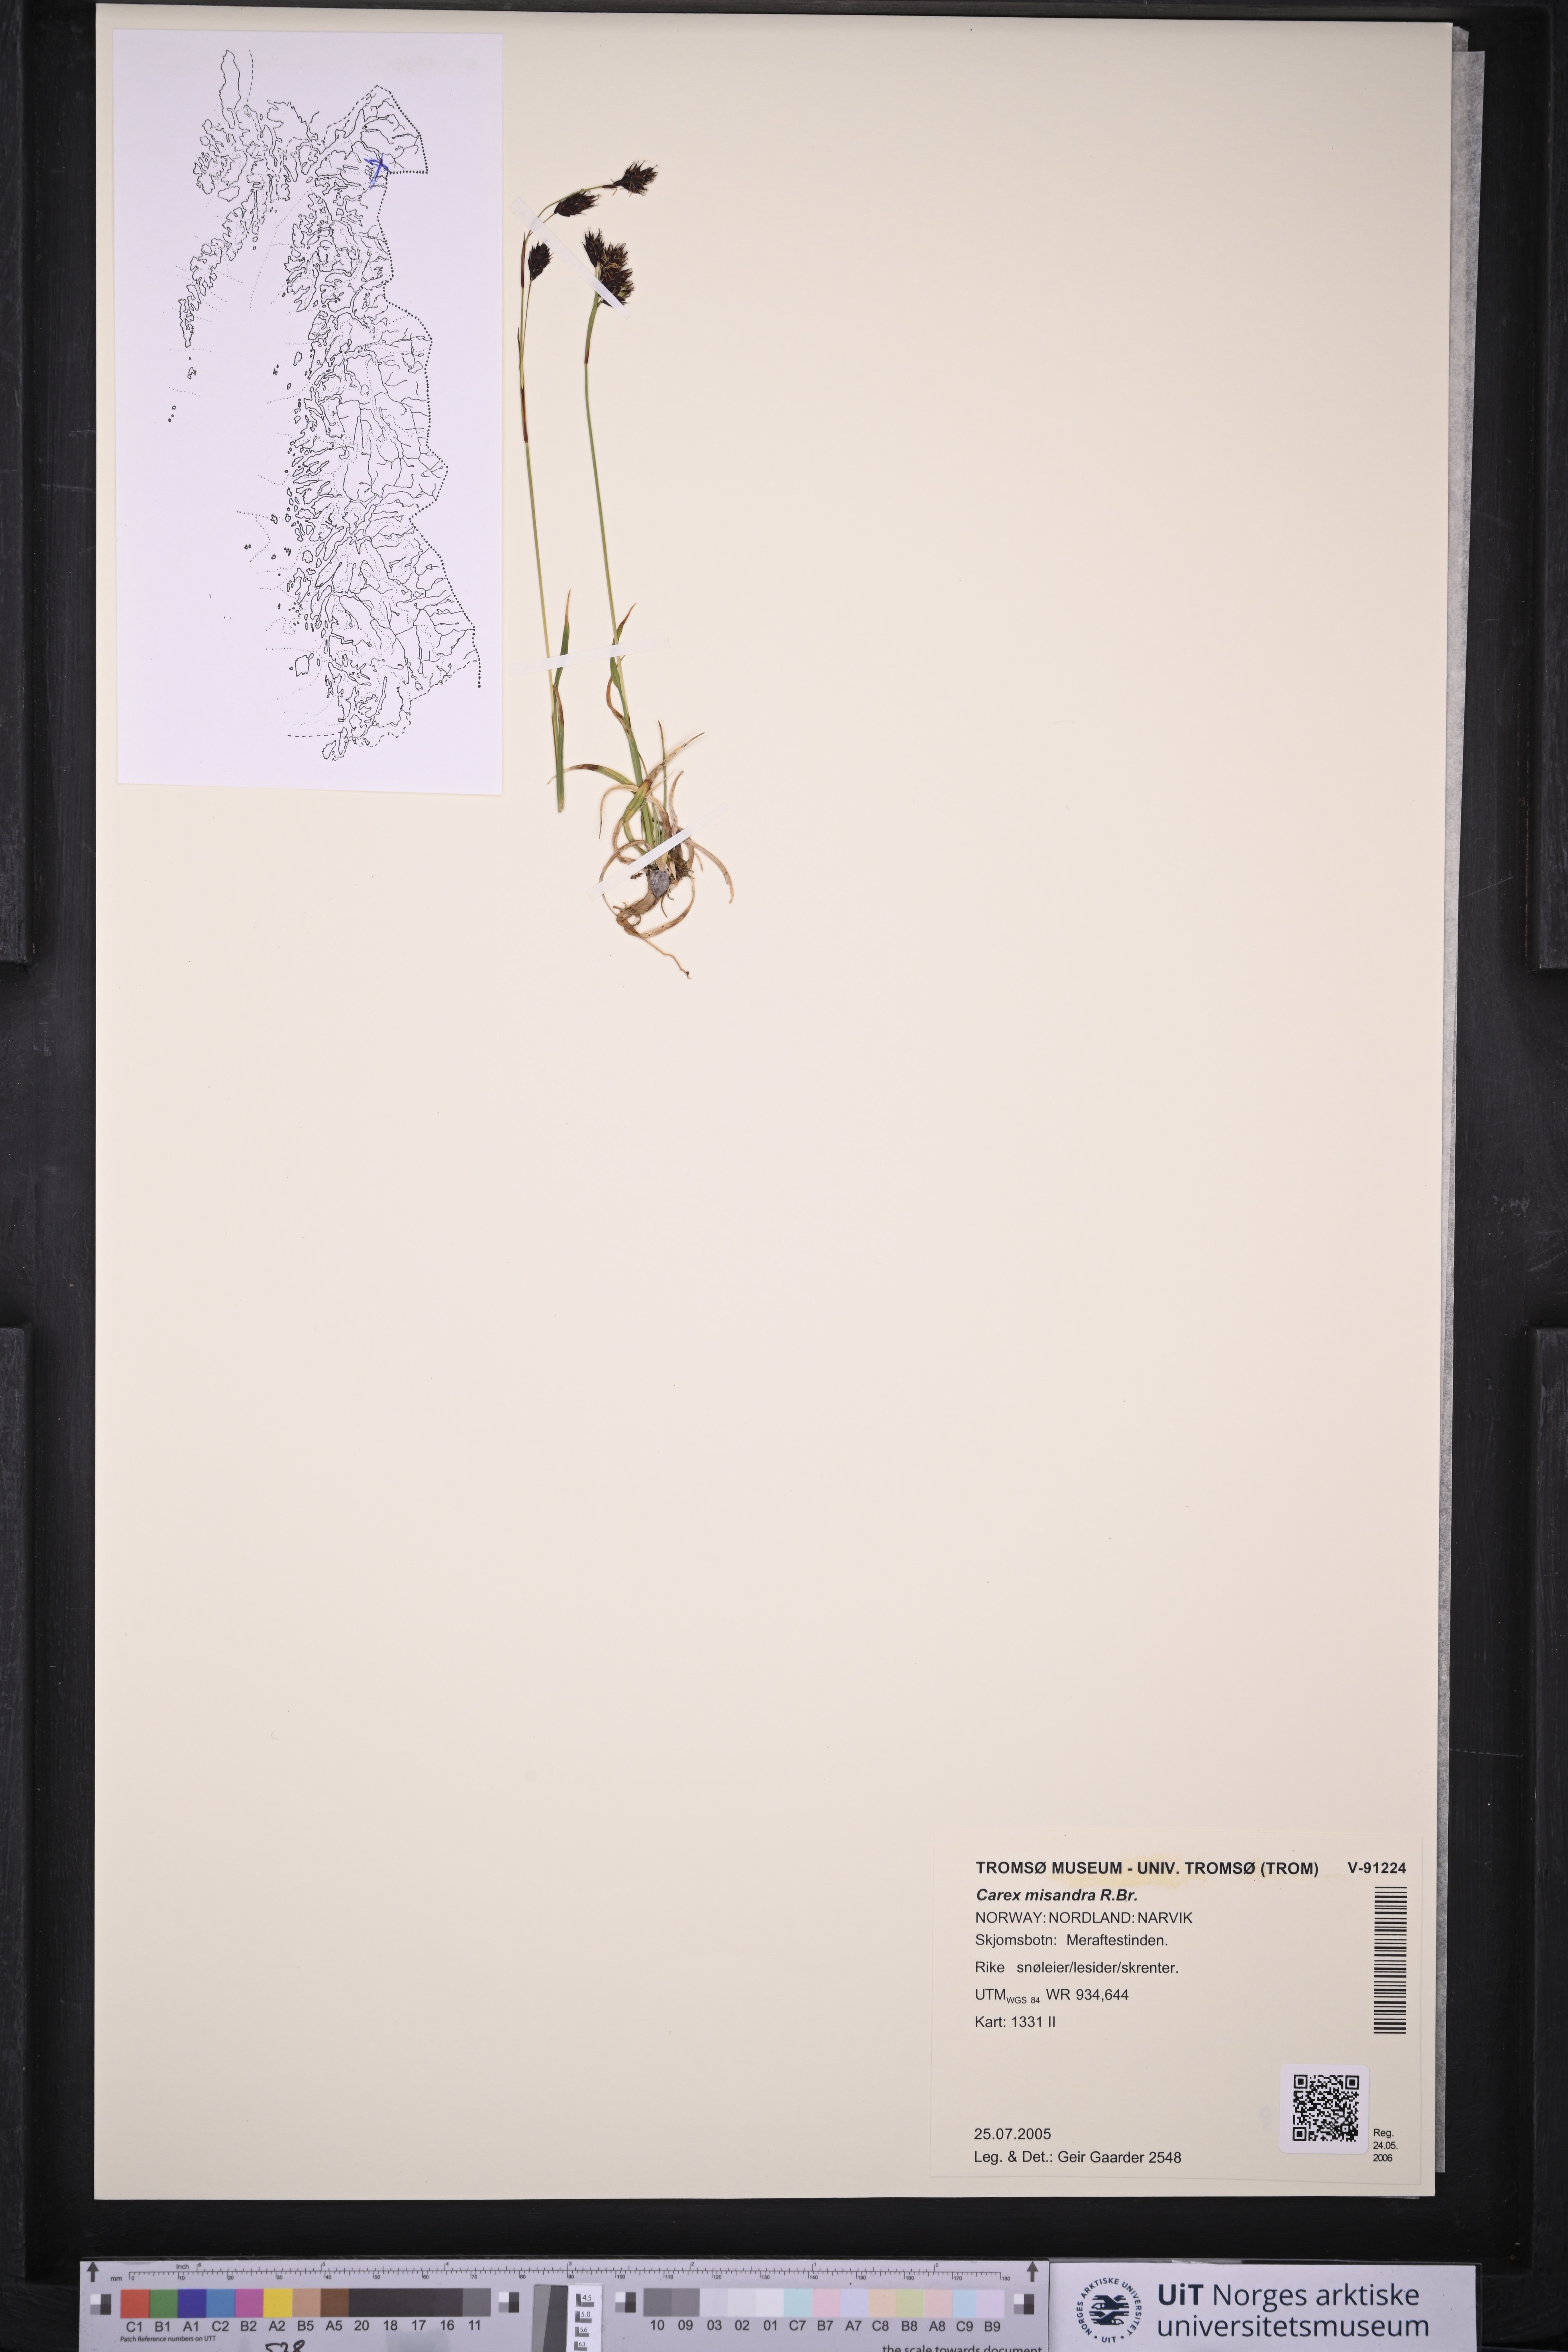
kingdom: Plantae
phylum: Tracheophyta
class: Liliopsida
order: Poales
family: Cyperaceae
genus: Carex
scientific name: Carex fuliginosa
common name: Few-flowered sedge
